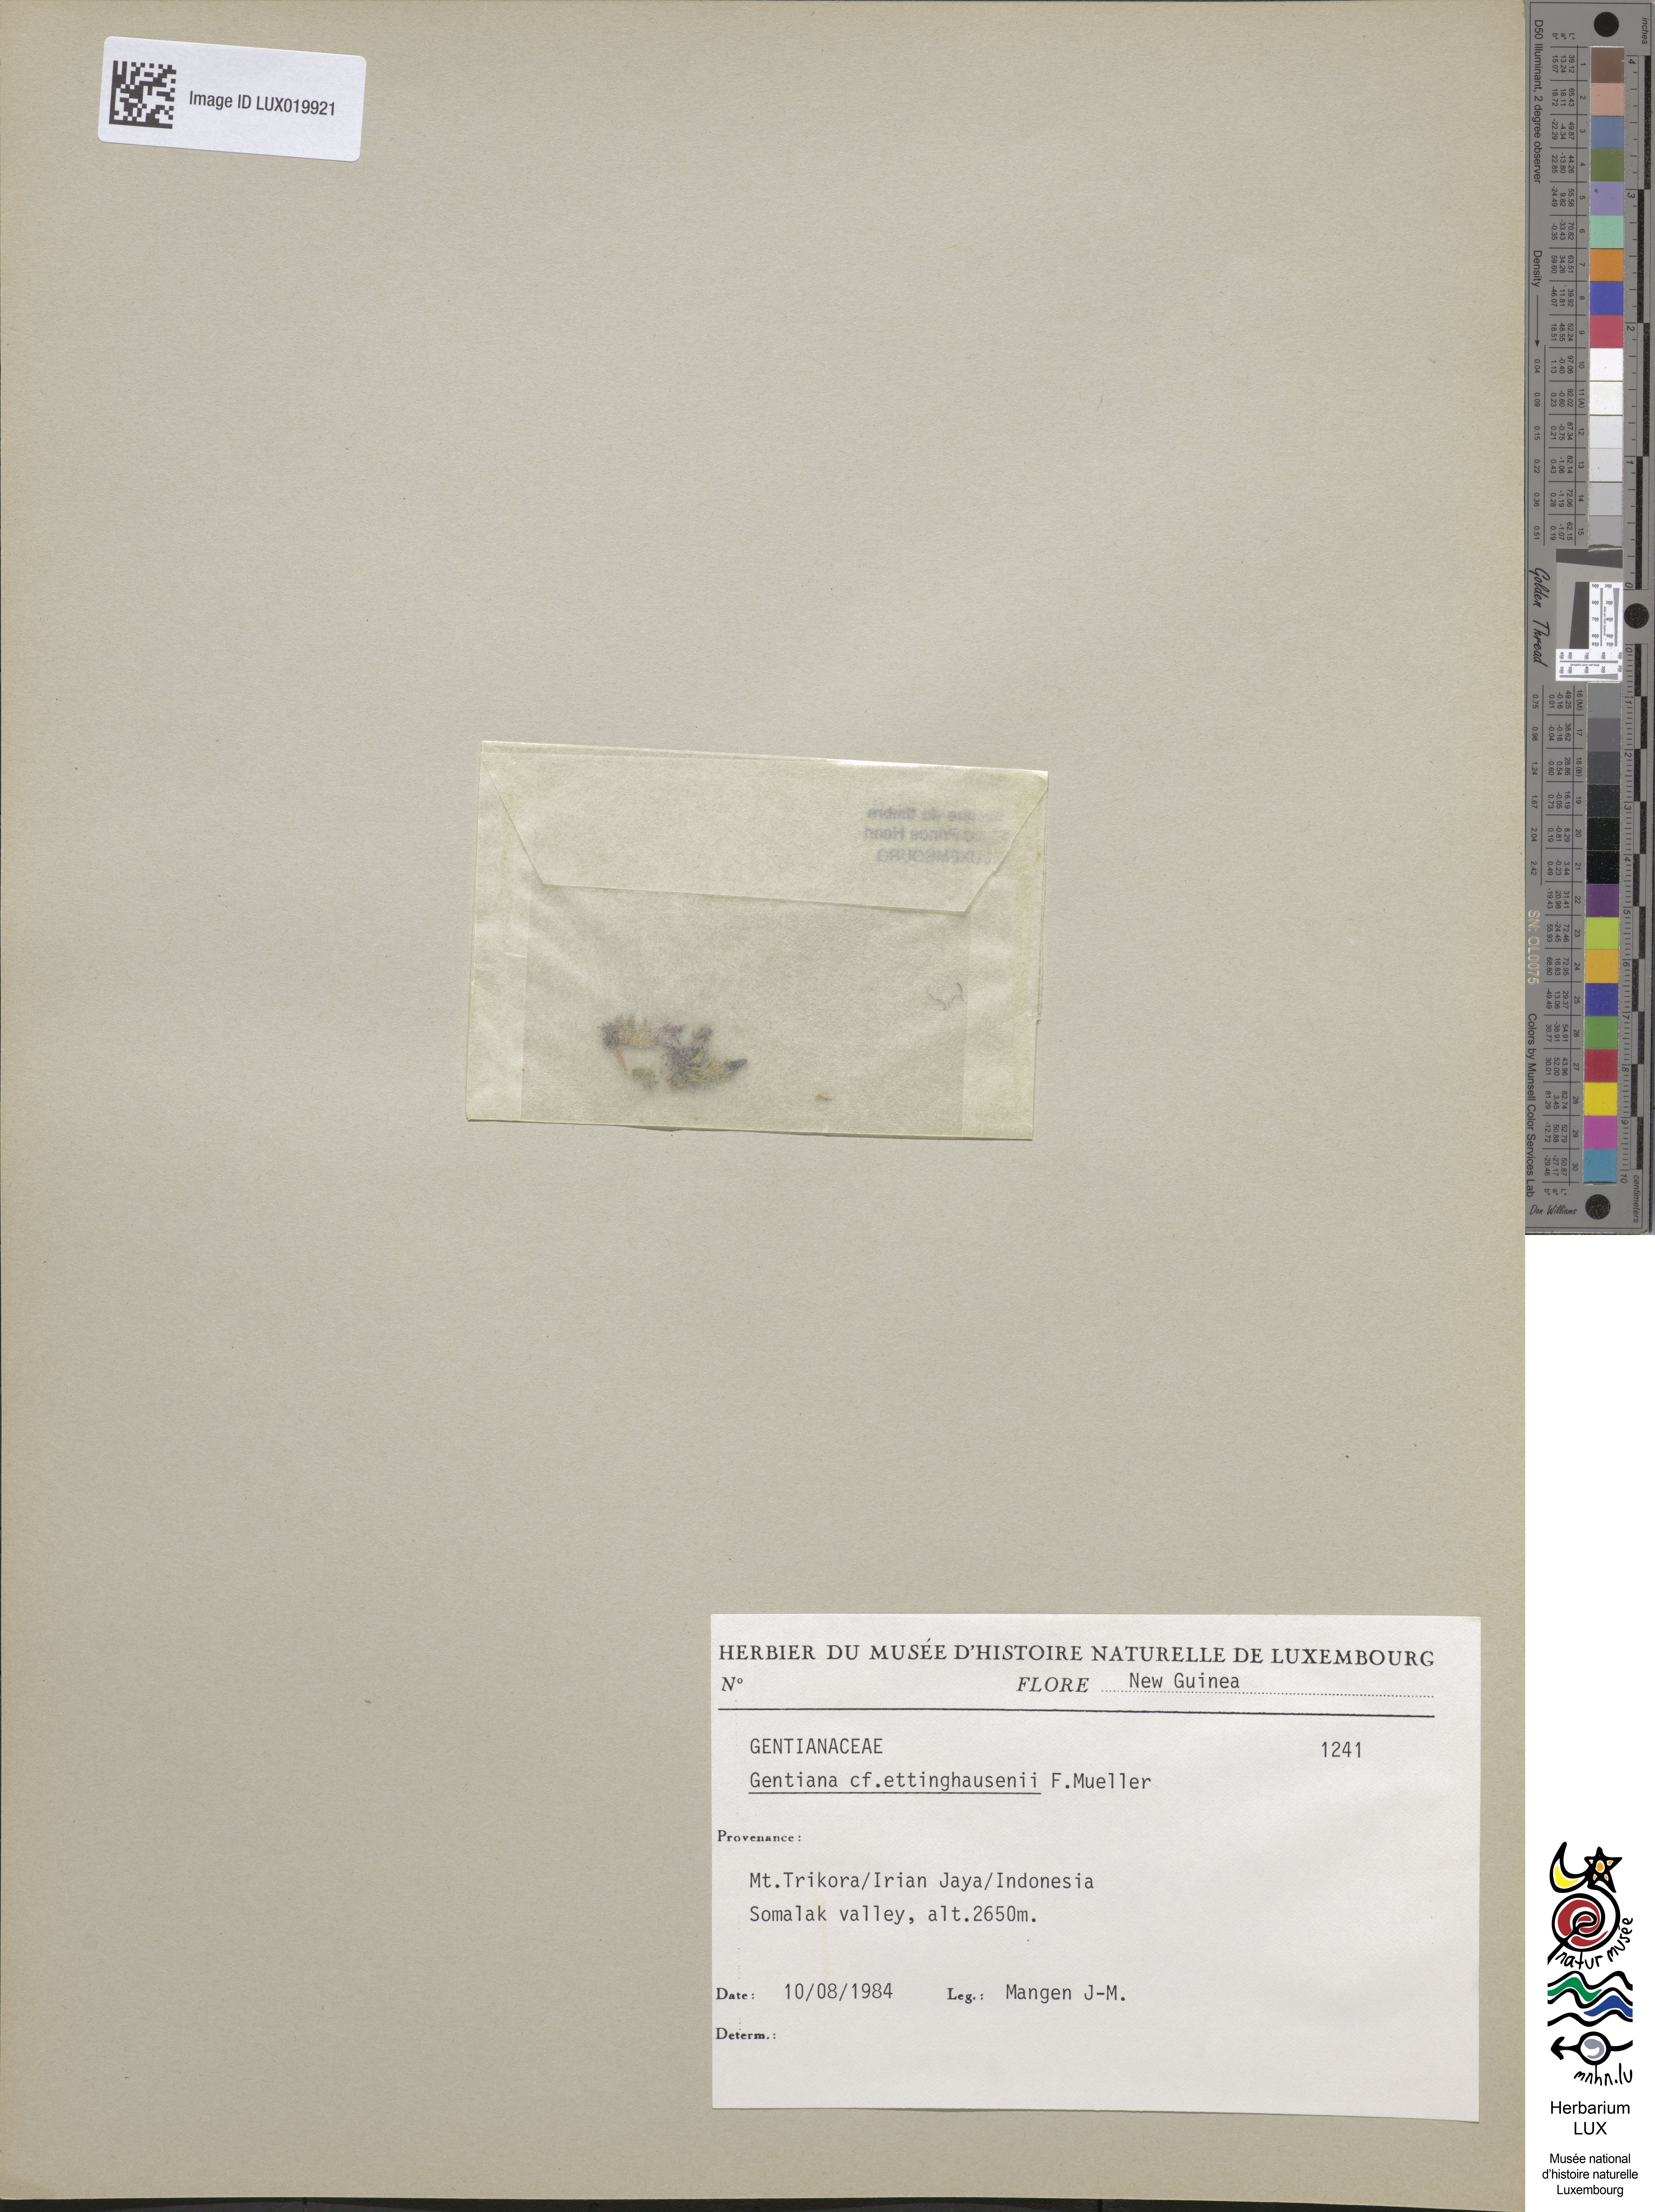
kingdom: Plantae
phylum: Tracheophyta
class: Magnoliopsida
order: Gentianales
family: Gentianaceae
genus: Gentiana
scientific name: Gentiana ettingshausenii
